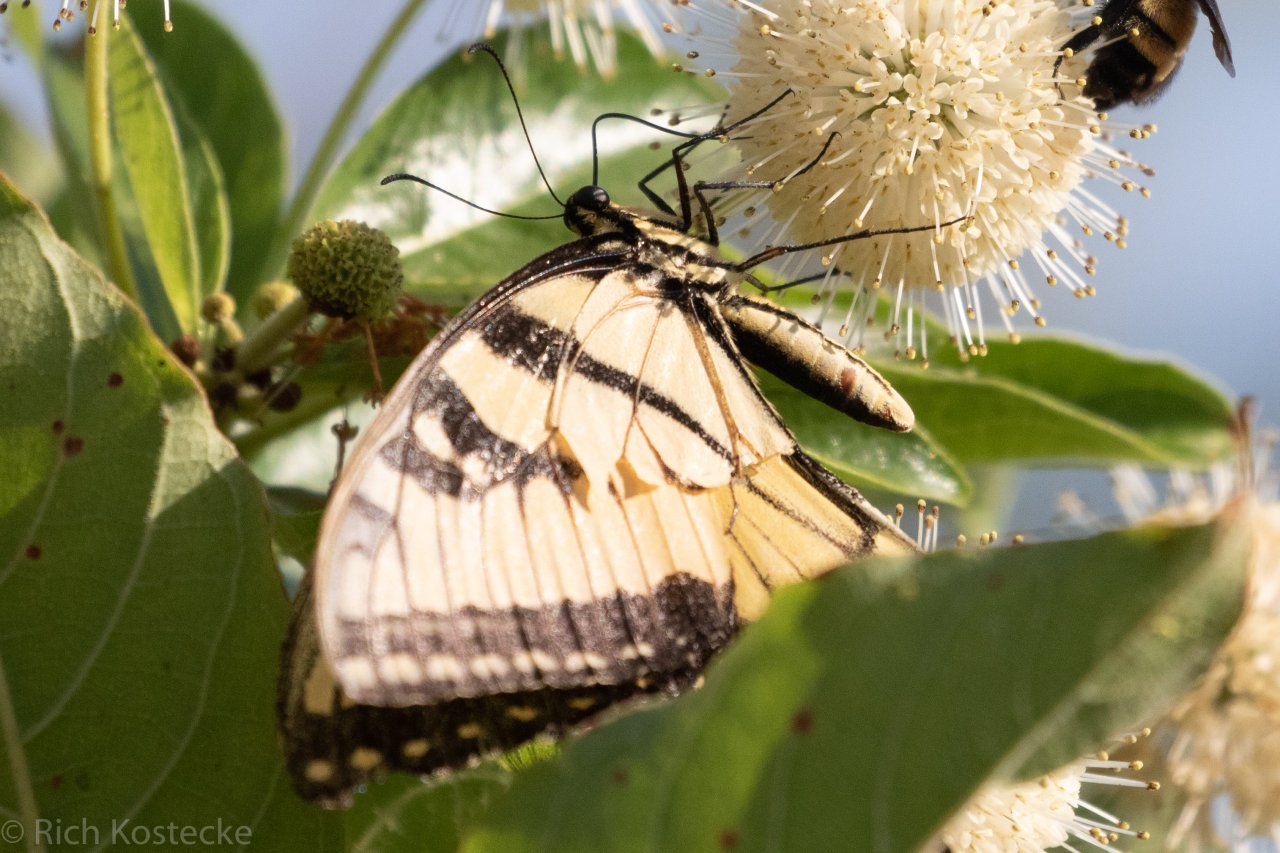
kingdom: Animalia
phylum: Arthropoda
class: Insecta
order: Lepidoptera
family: Papilionidae
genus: Pterourus
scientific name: Pterourus glaucus
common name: Eastern Tiger Swallowtail
